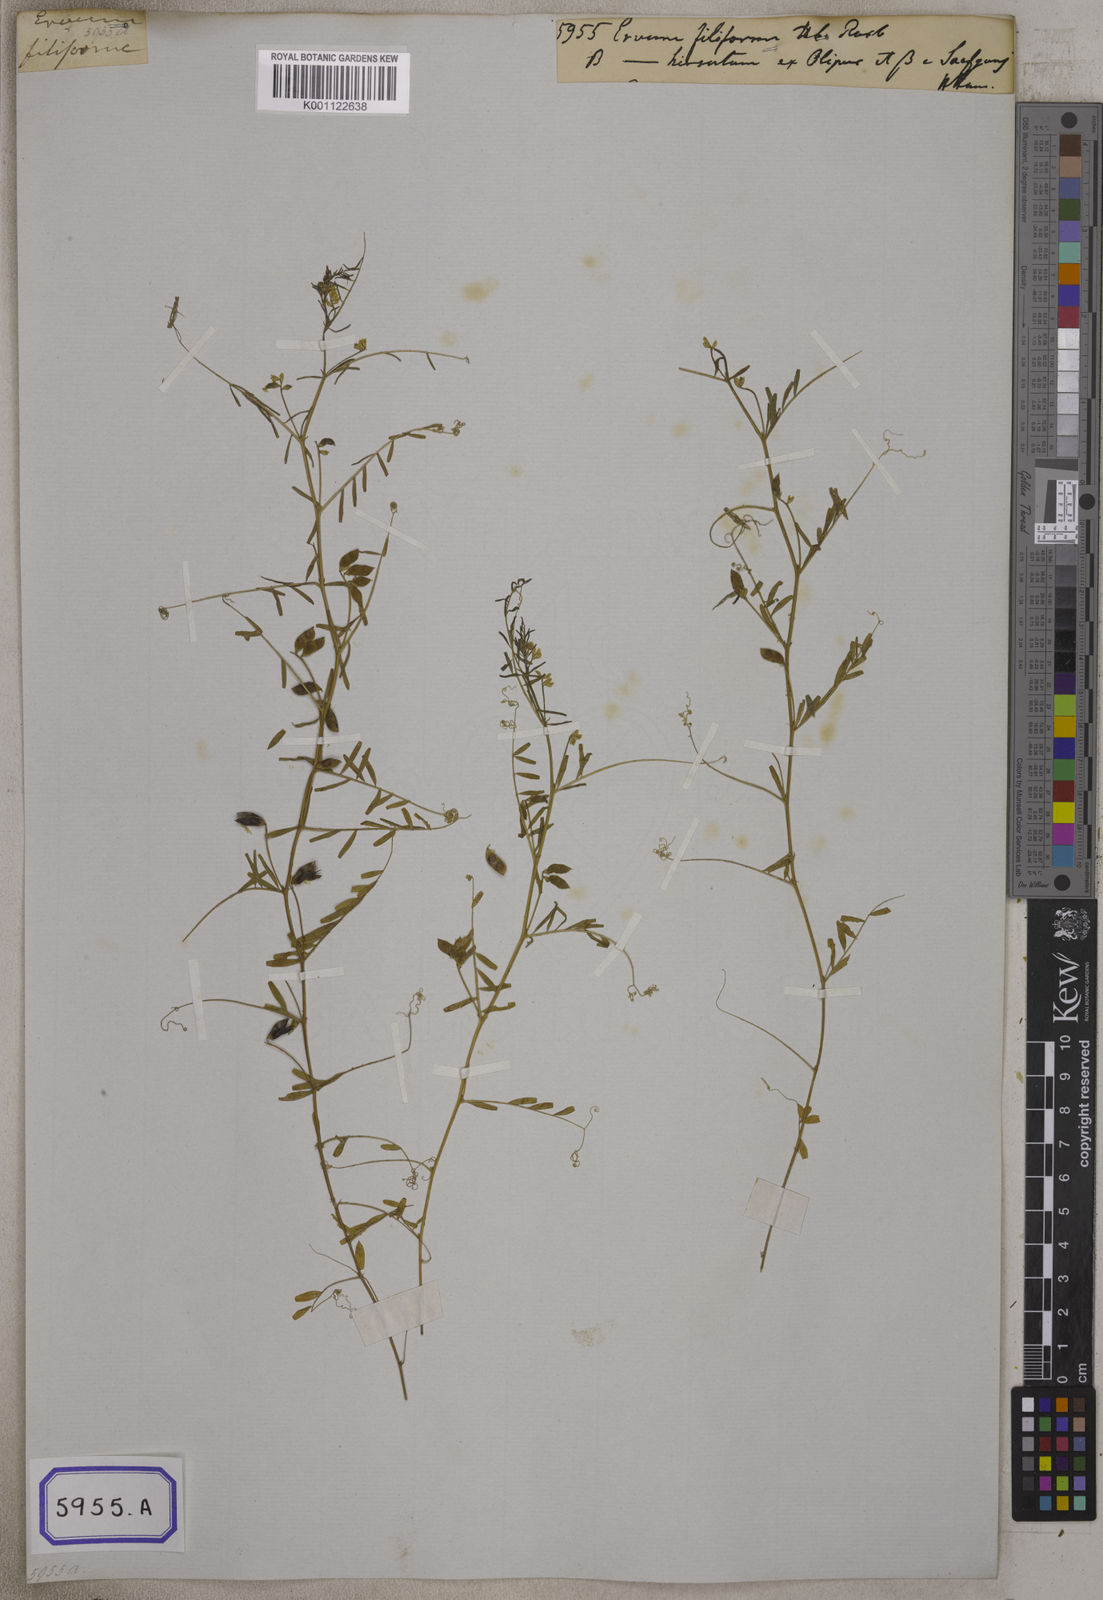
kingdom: Plantae
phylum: Tracheophyta
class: Magnoliopsida
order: Fabales
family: Fabaceae
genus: Vicia
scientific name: Vicia hirsuta
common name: Tiny vetch
